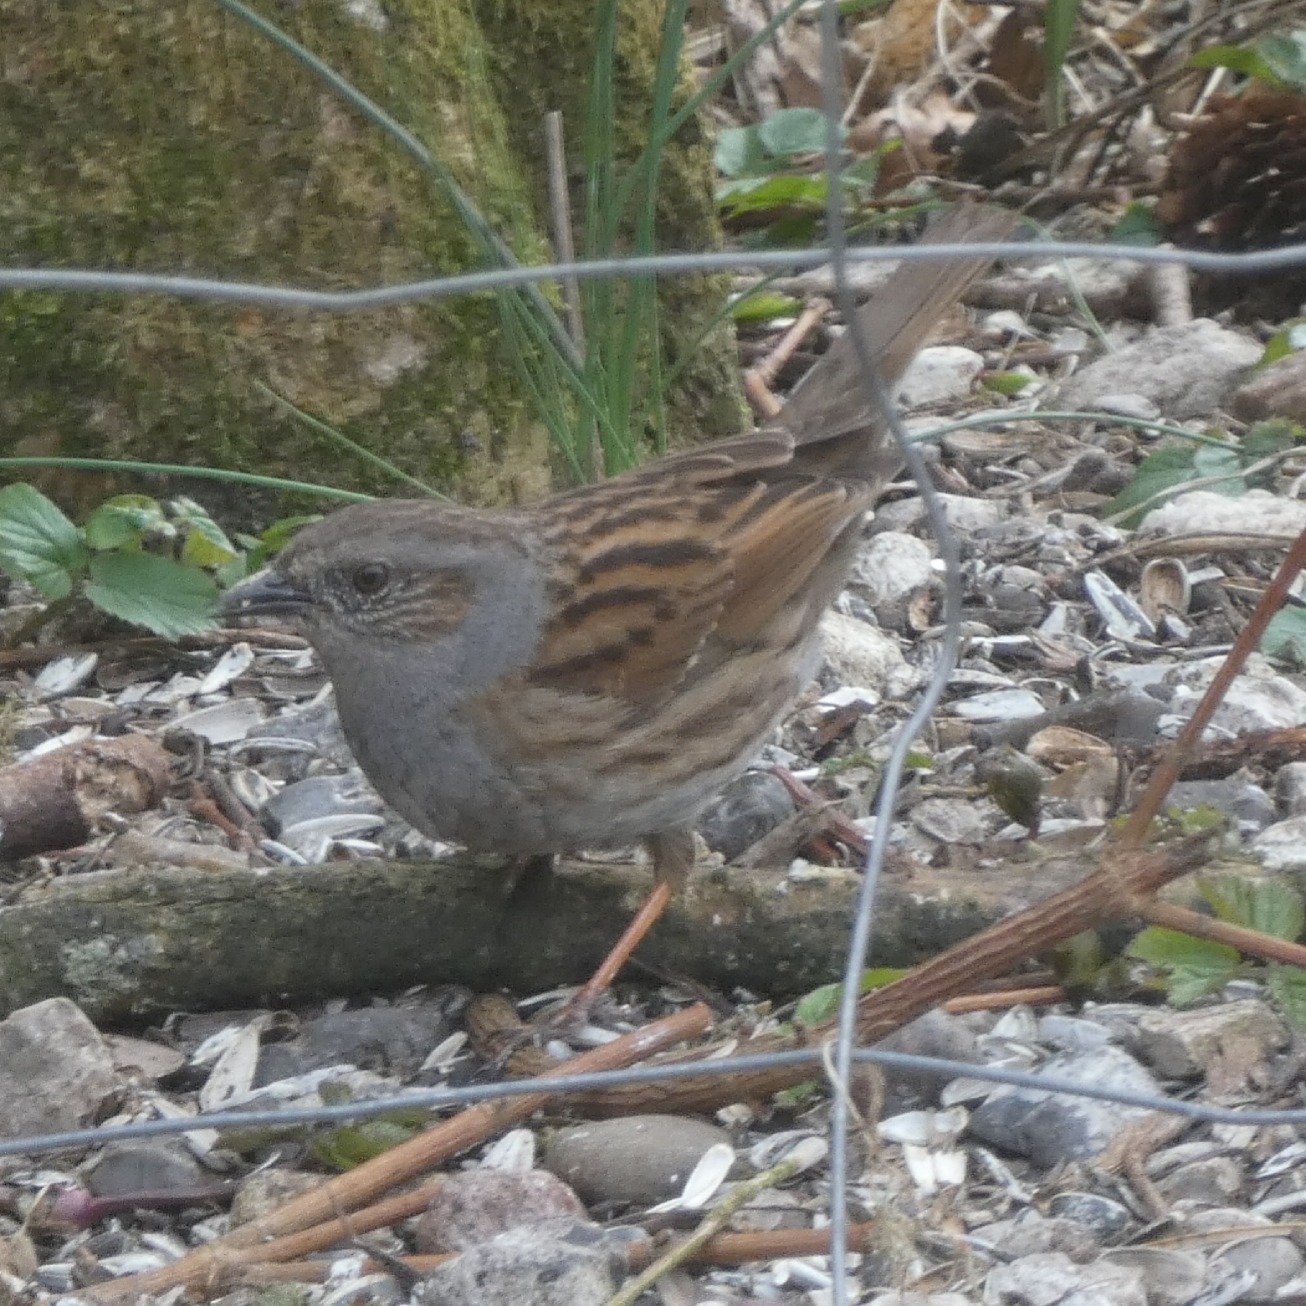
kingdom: Animalia
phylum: Chordata
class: Aves
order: Passeriformes
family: Prunellidae
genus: Prunella
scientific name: Prunella modularis
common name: Jernspurv
